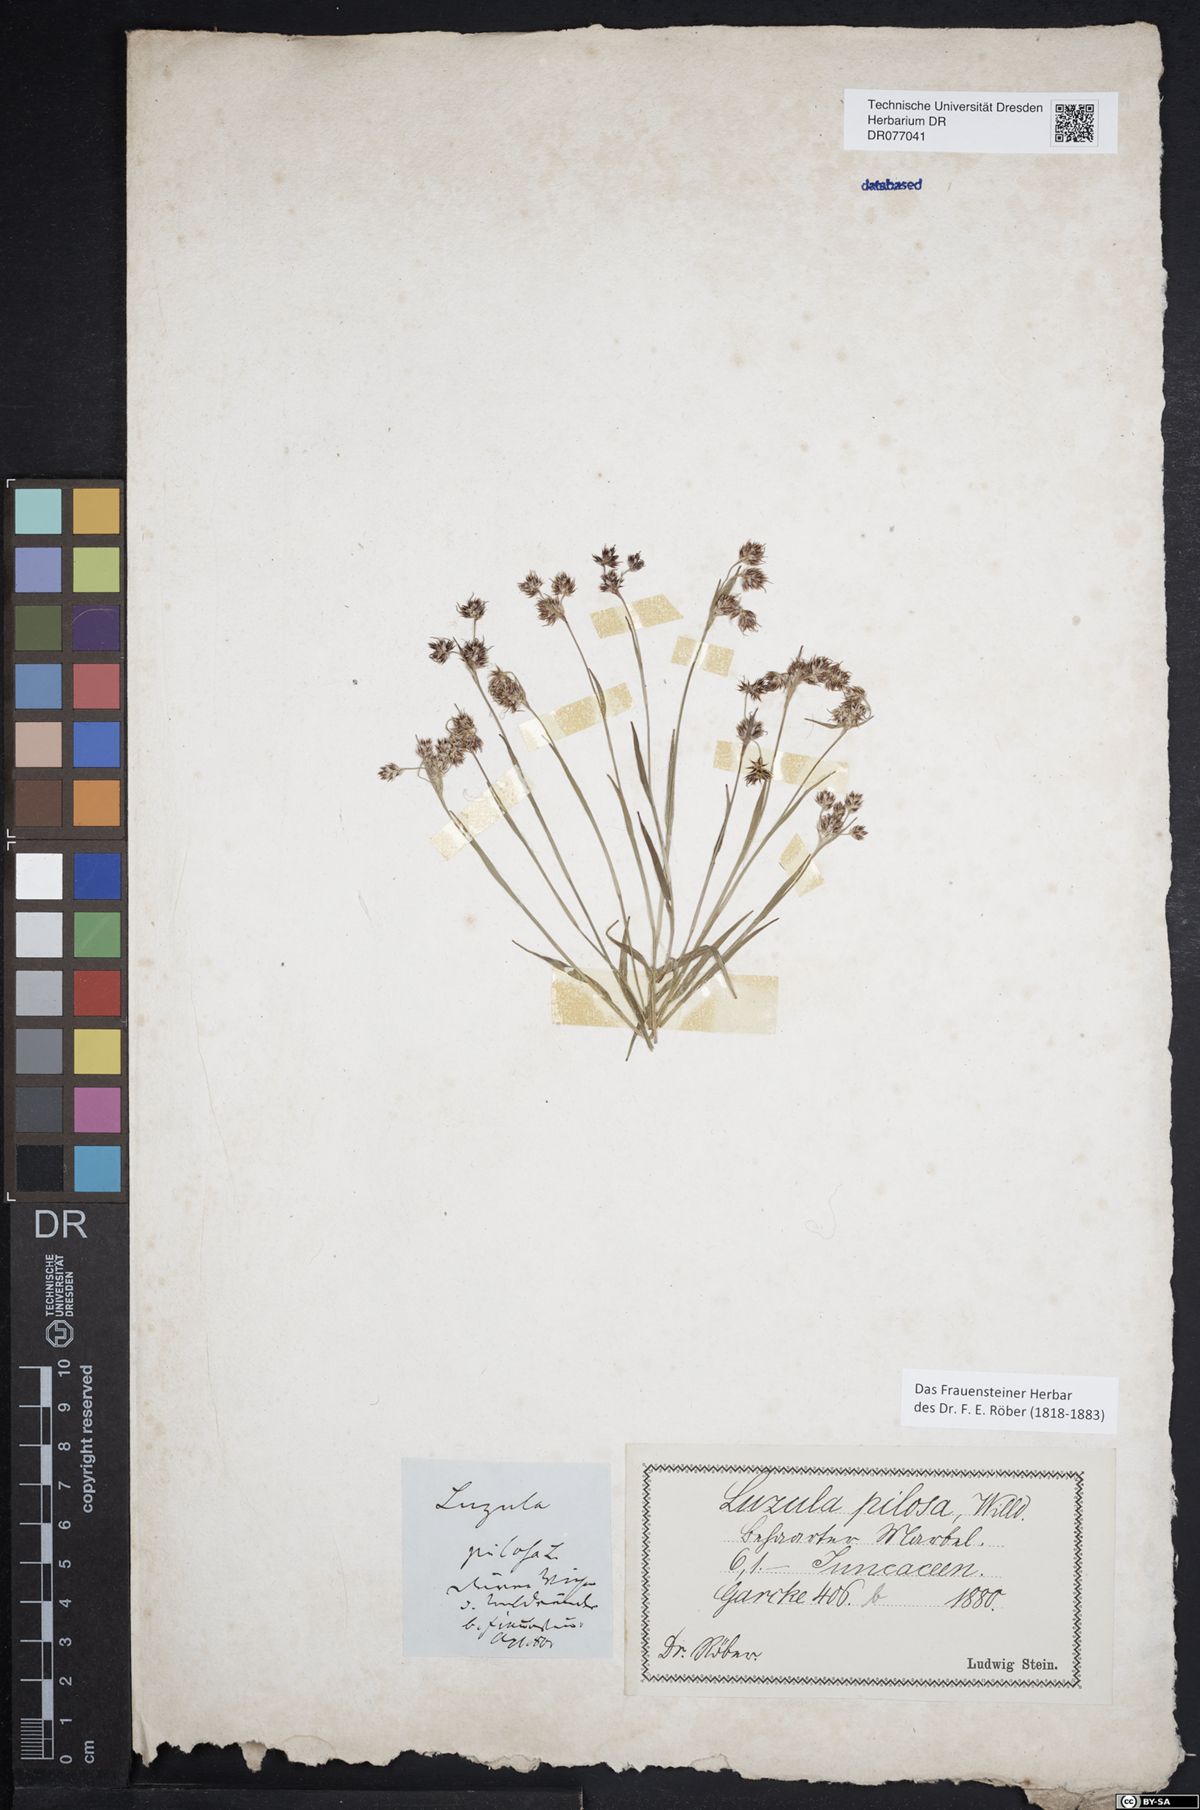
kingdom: Plantae
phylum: Tracheophyta
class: Liliopsida
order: Poales
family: Juncaceae
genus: Luzula
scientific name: Luzula campestris
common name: Field wood-rush
